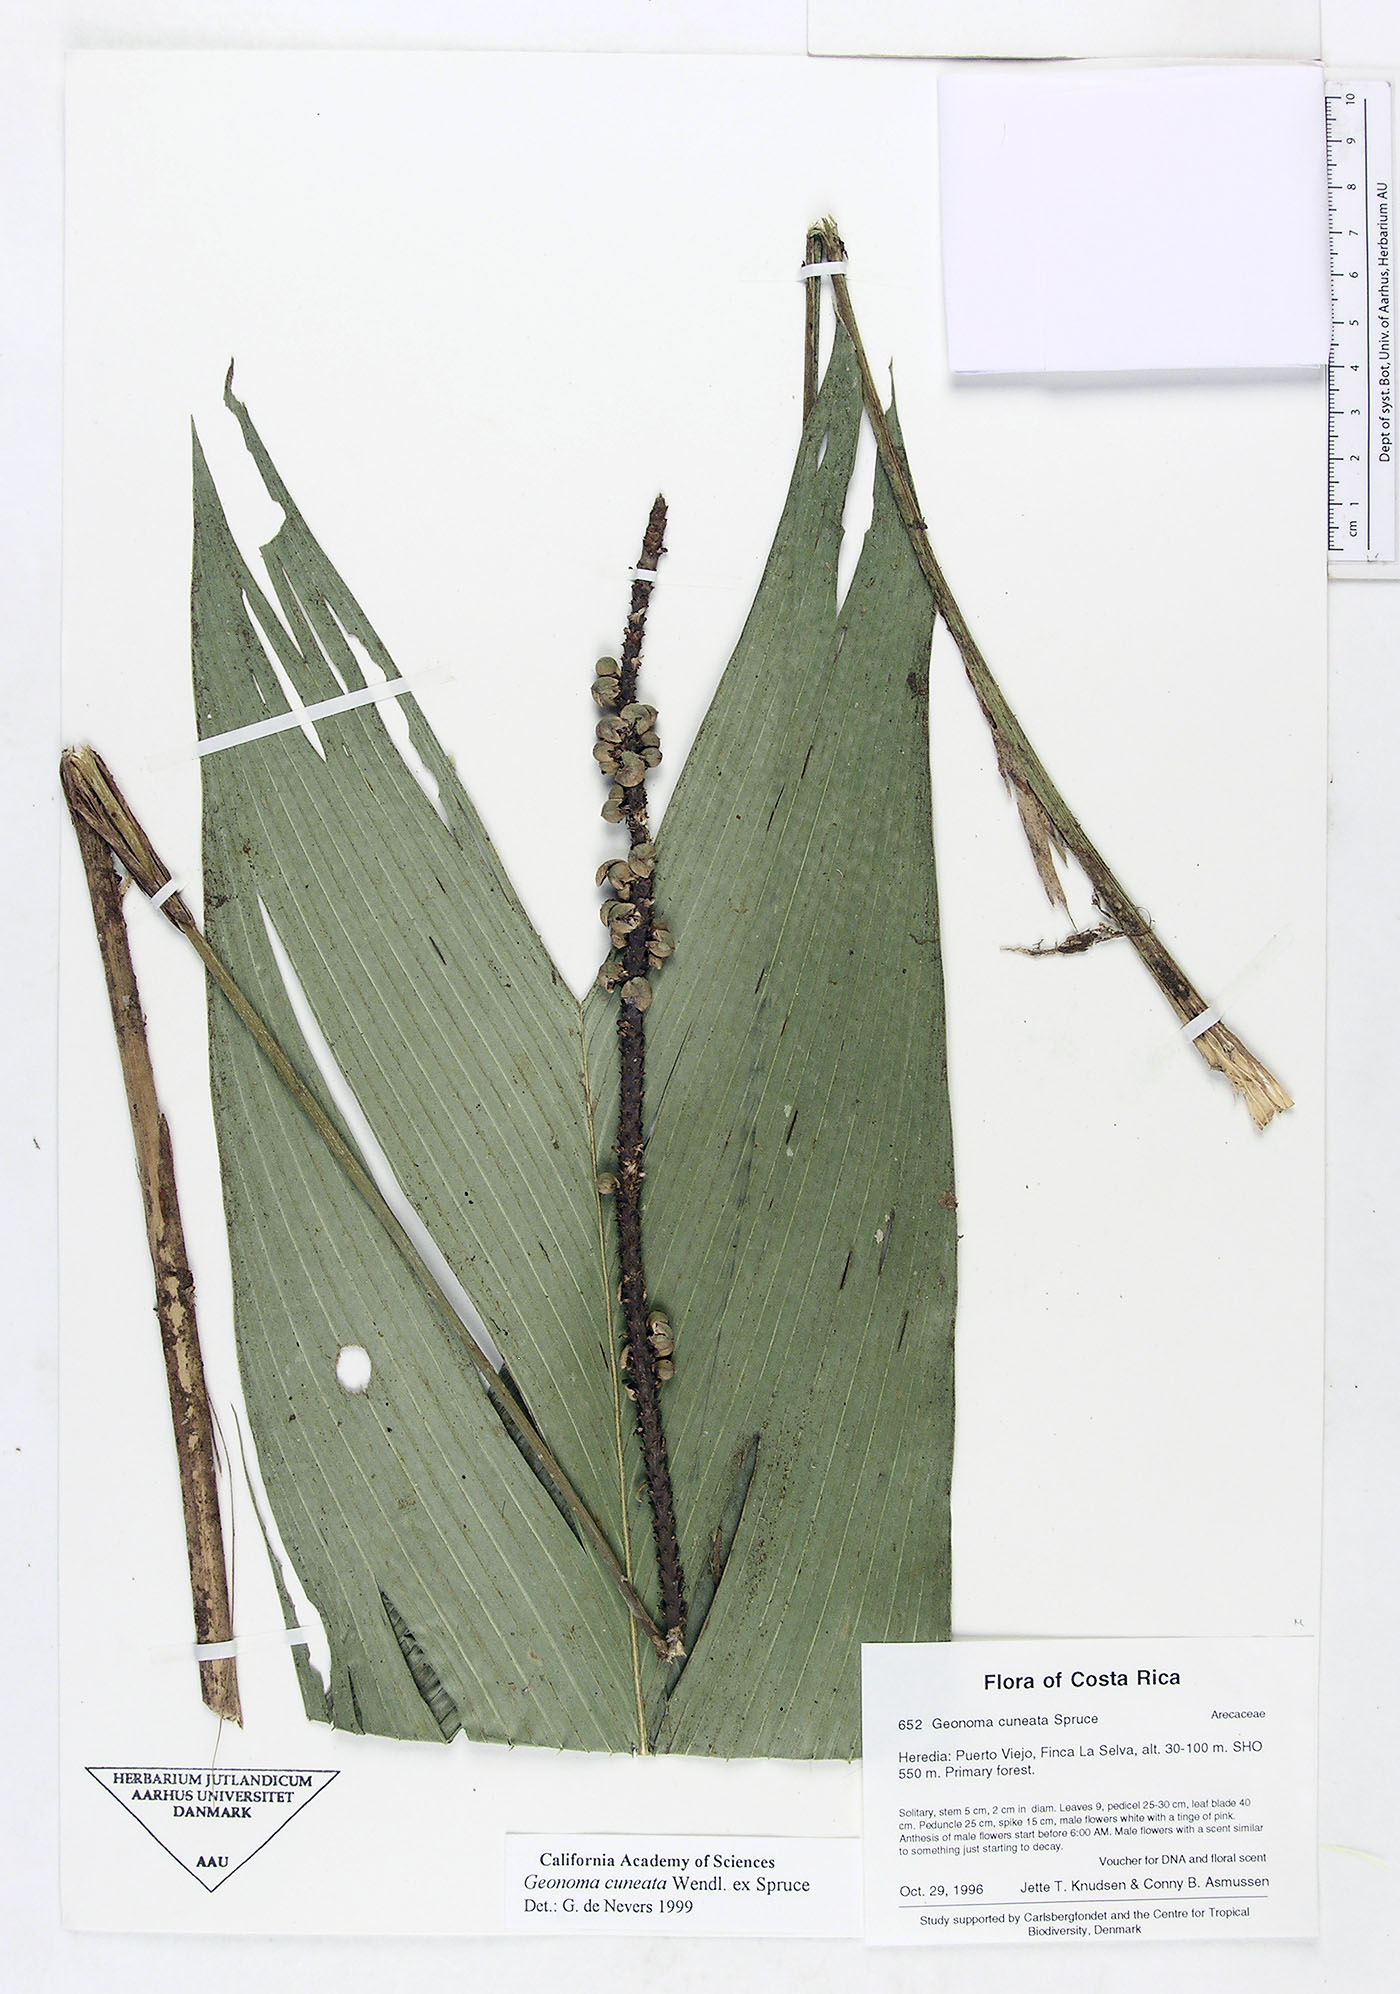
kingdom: Plantae
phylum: Tracheophyta
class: Liliopsida
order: Arecales
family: Arecaceae
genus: Geonoma
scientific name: Geonoma cuneata
